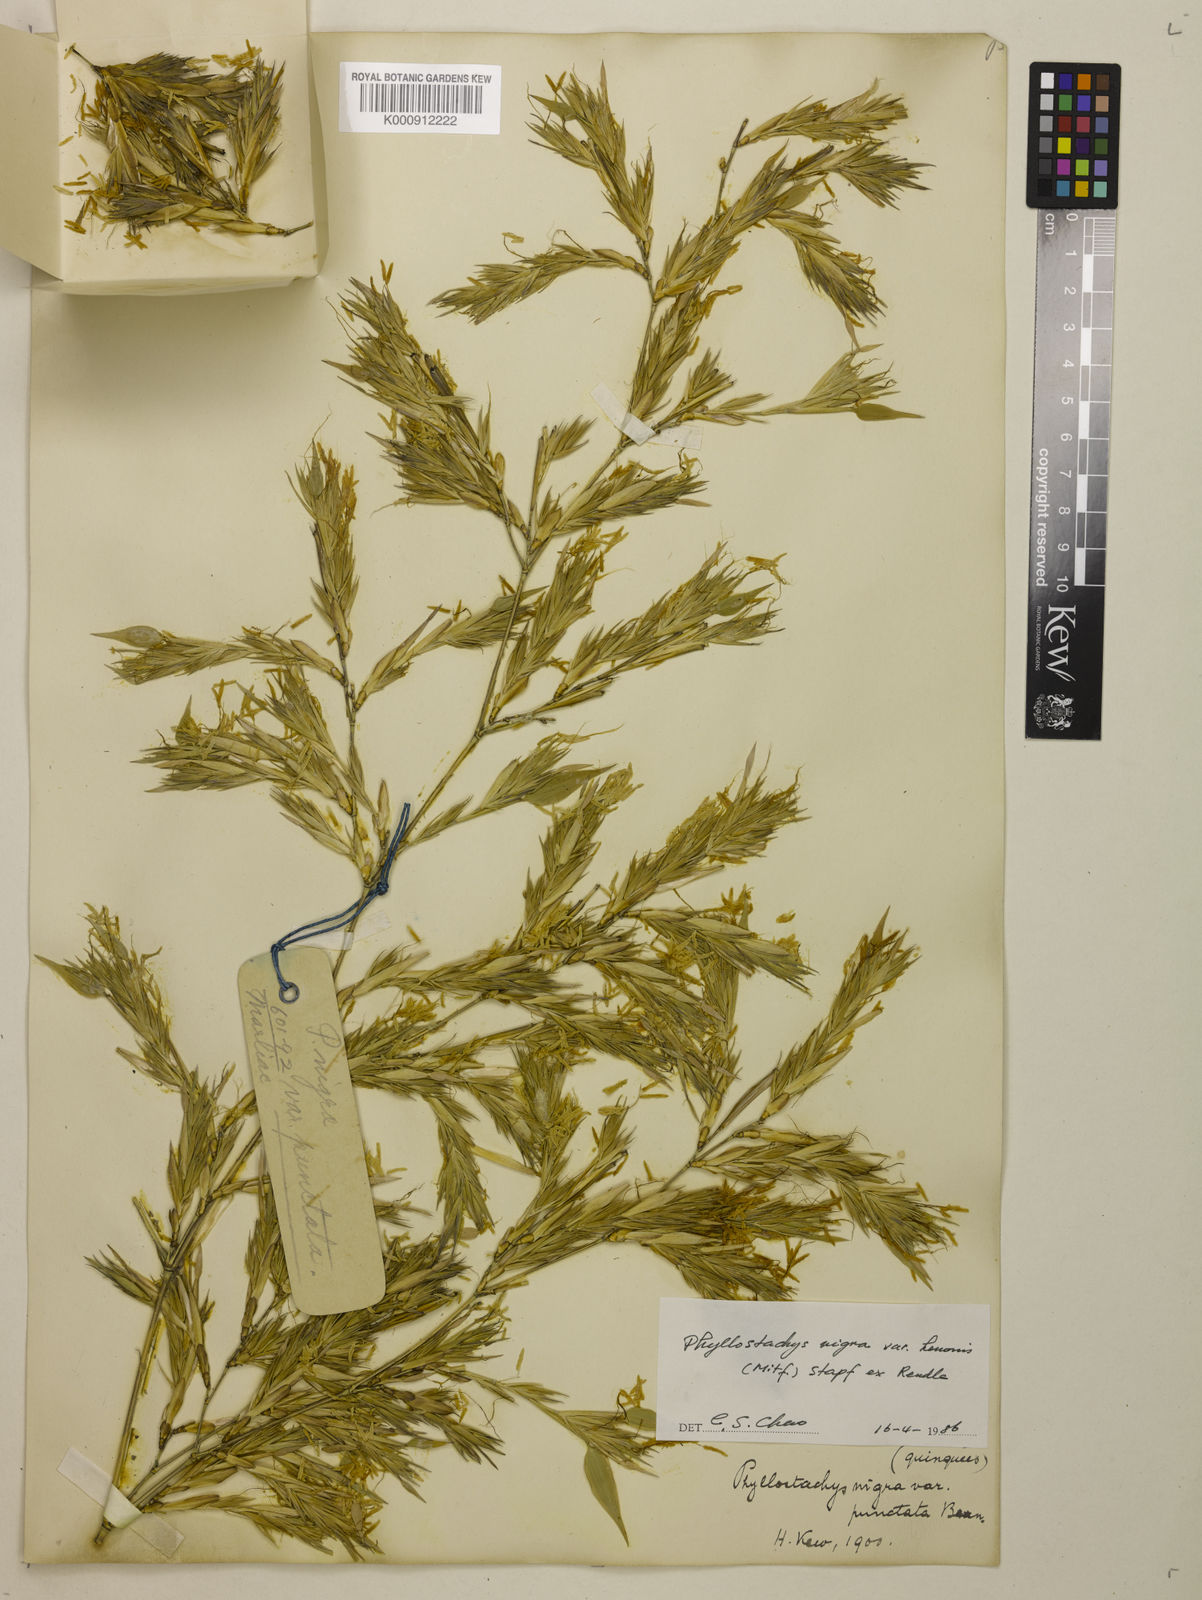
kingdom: Plantae
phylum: Tracheophyta
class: Liliopsida
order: Poales
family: Poaceae
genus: Phyllostachys
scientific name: Phyllostachys nigra
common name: Black bamboo
